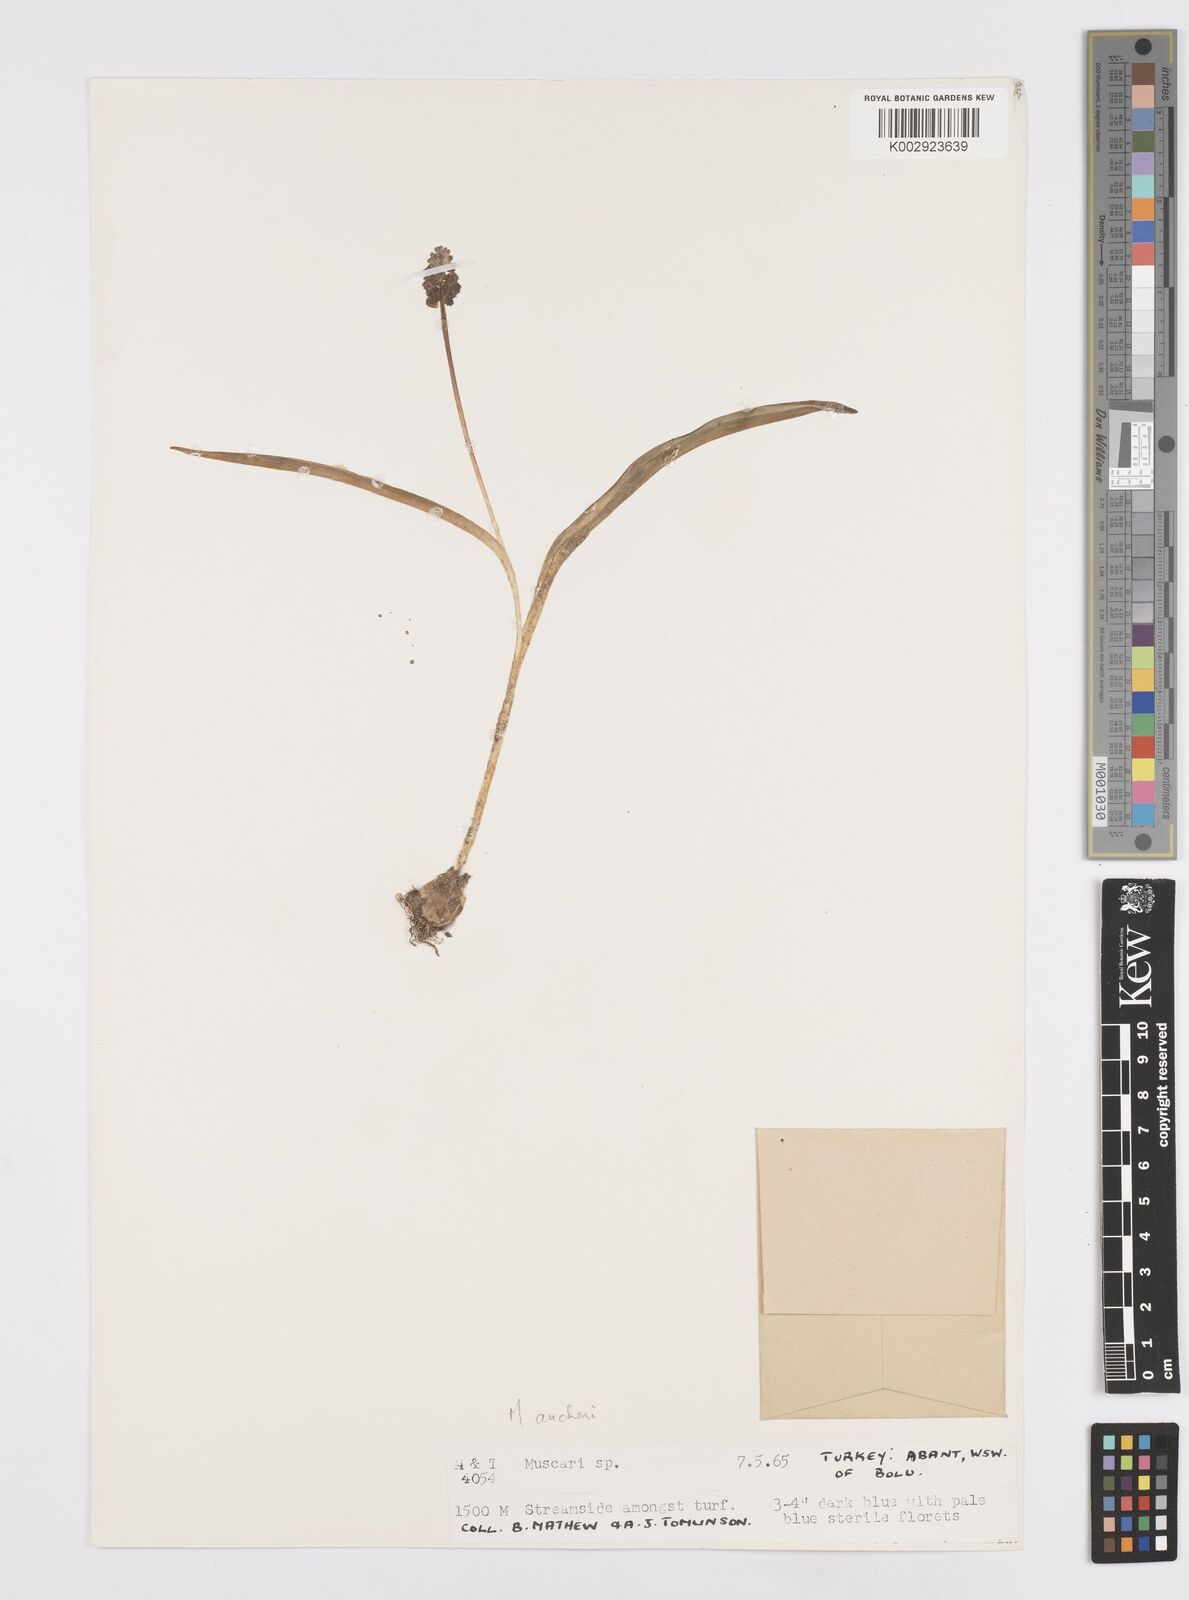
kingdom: Plantae
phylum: Tracheophyta
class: Liliopsida
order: Asparagales
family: Asparagaceae
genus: Muscari
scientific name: Muscari aucheri
